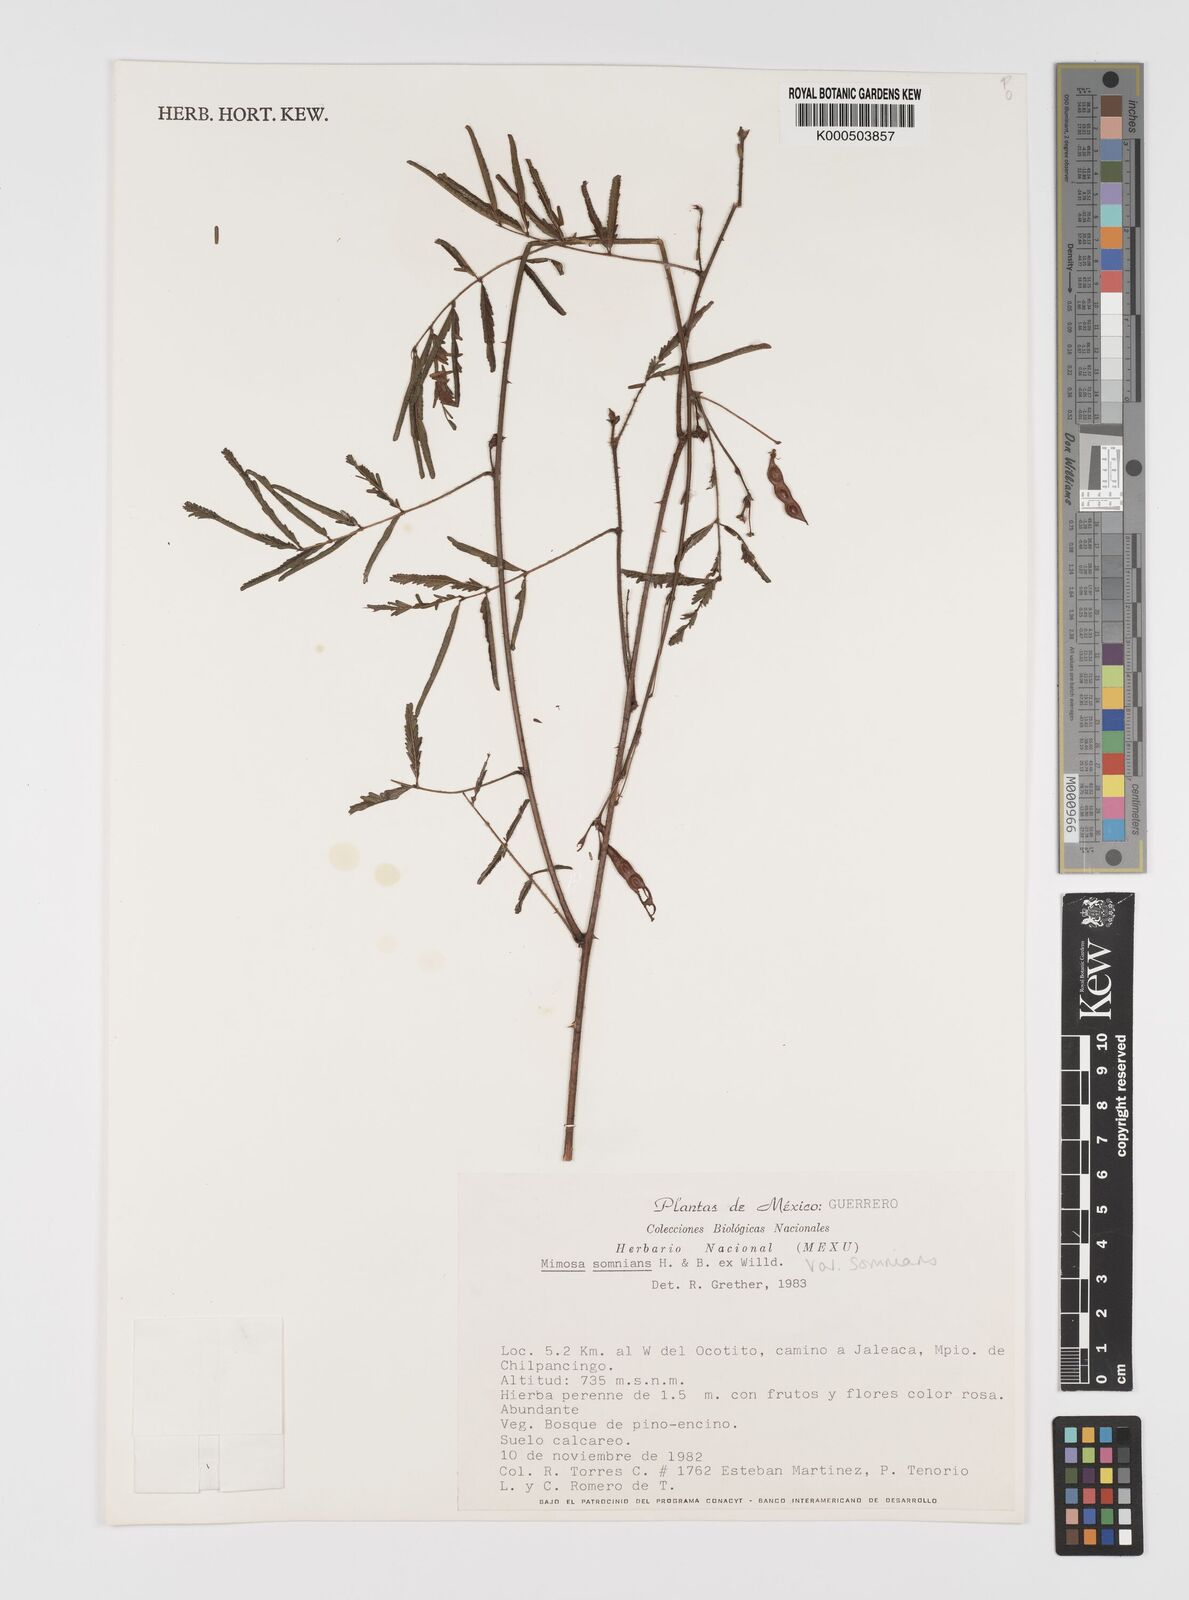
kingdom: Plantae
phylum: Tracheophyta
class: Magnoliopsida
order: Fabales
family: Fabaceae
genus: Mimosa
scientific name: Mimosa somnians
